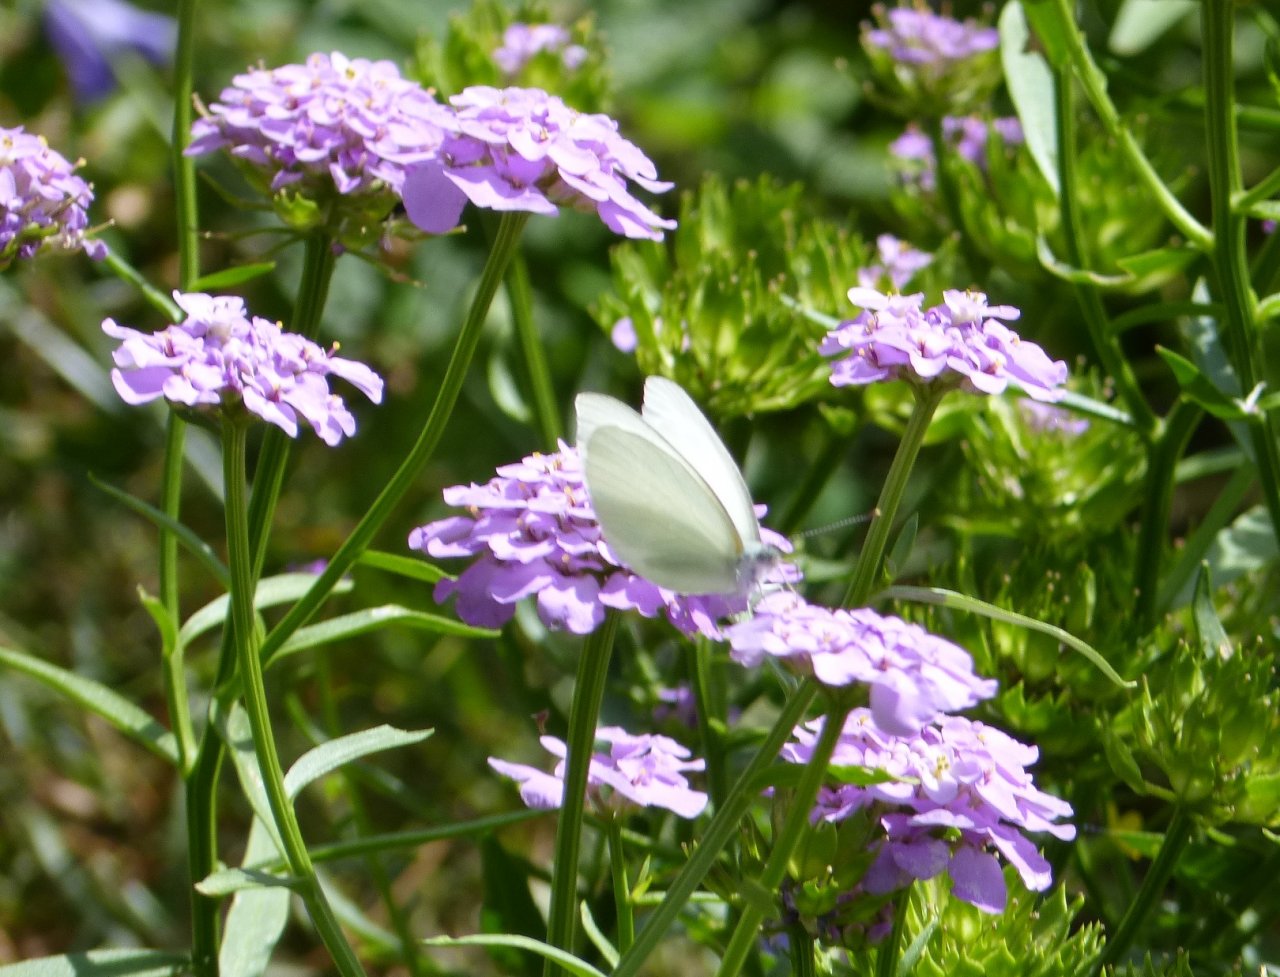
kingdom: Animalia
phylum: Arthropoda
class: Insecta
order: Lepidoptera
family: Pieridae
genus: Pieris
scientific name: Pieris oleracea
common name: Mustard White
